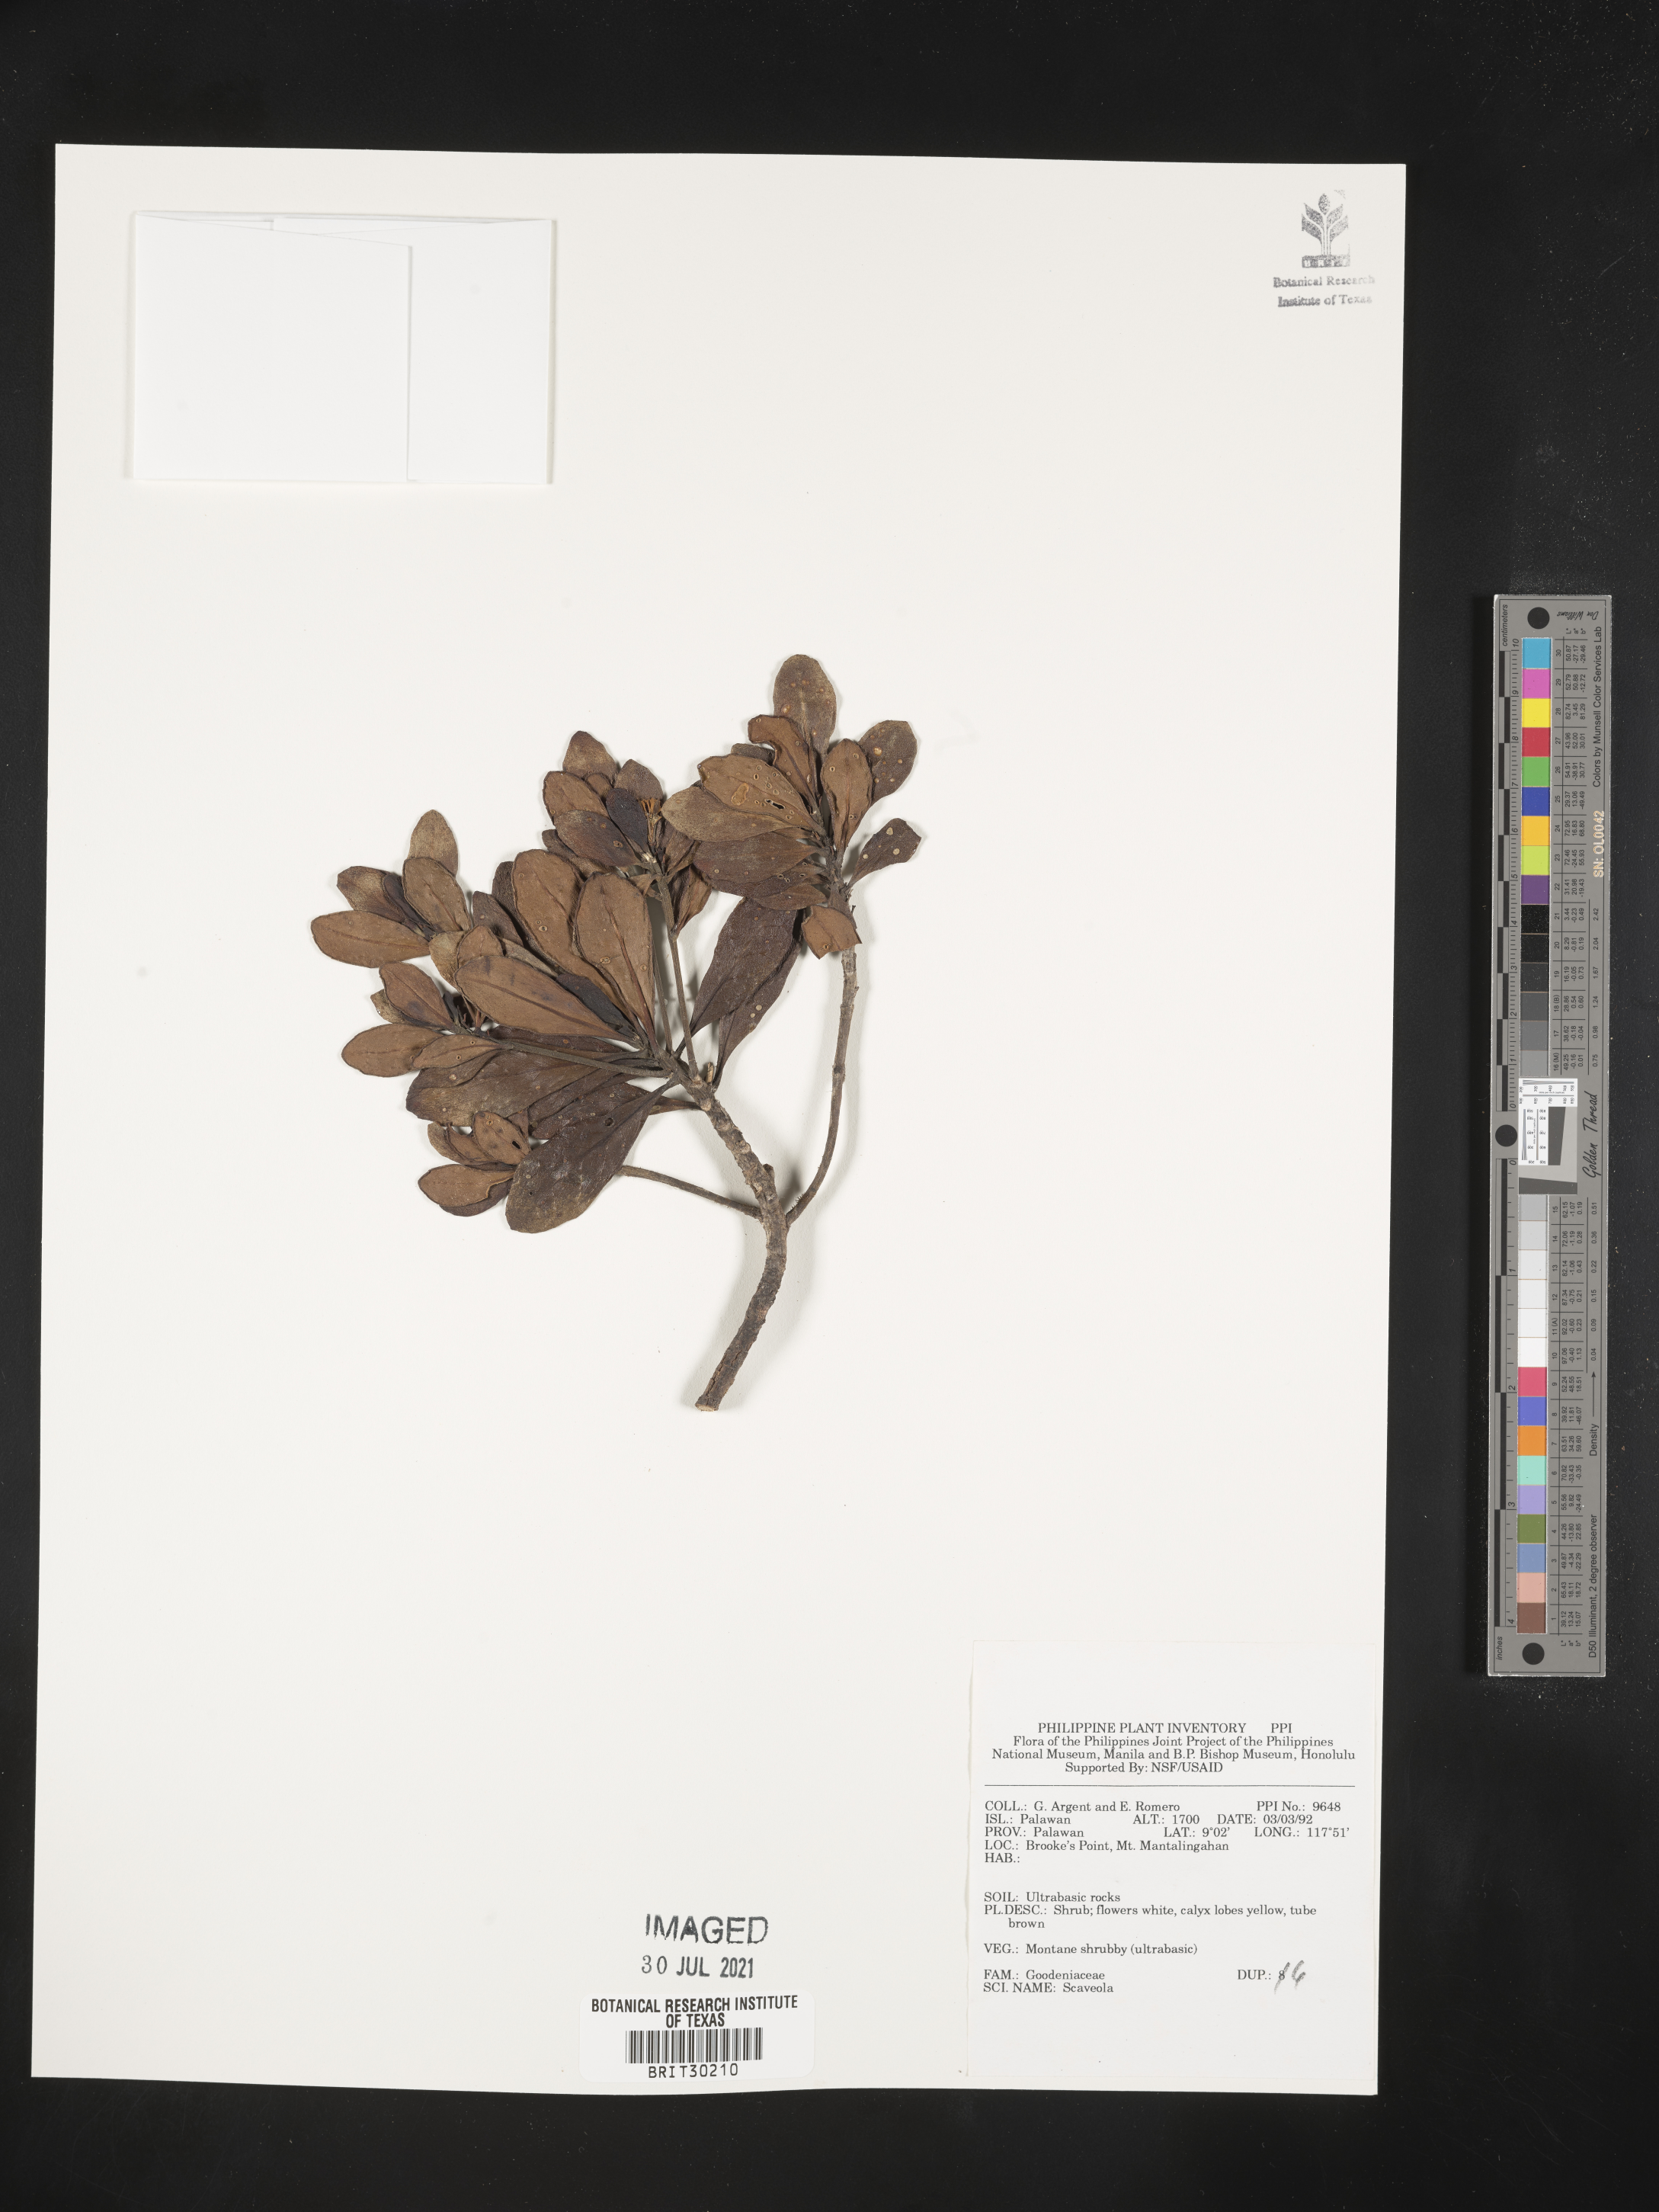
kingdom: Plantae
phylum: Tracheophyta
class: Magnoliopsida
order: Asterales
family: Goodeniaceae
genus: Scaevola
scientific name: Scaevola
